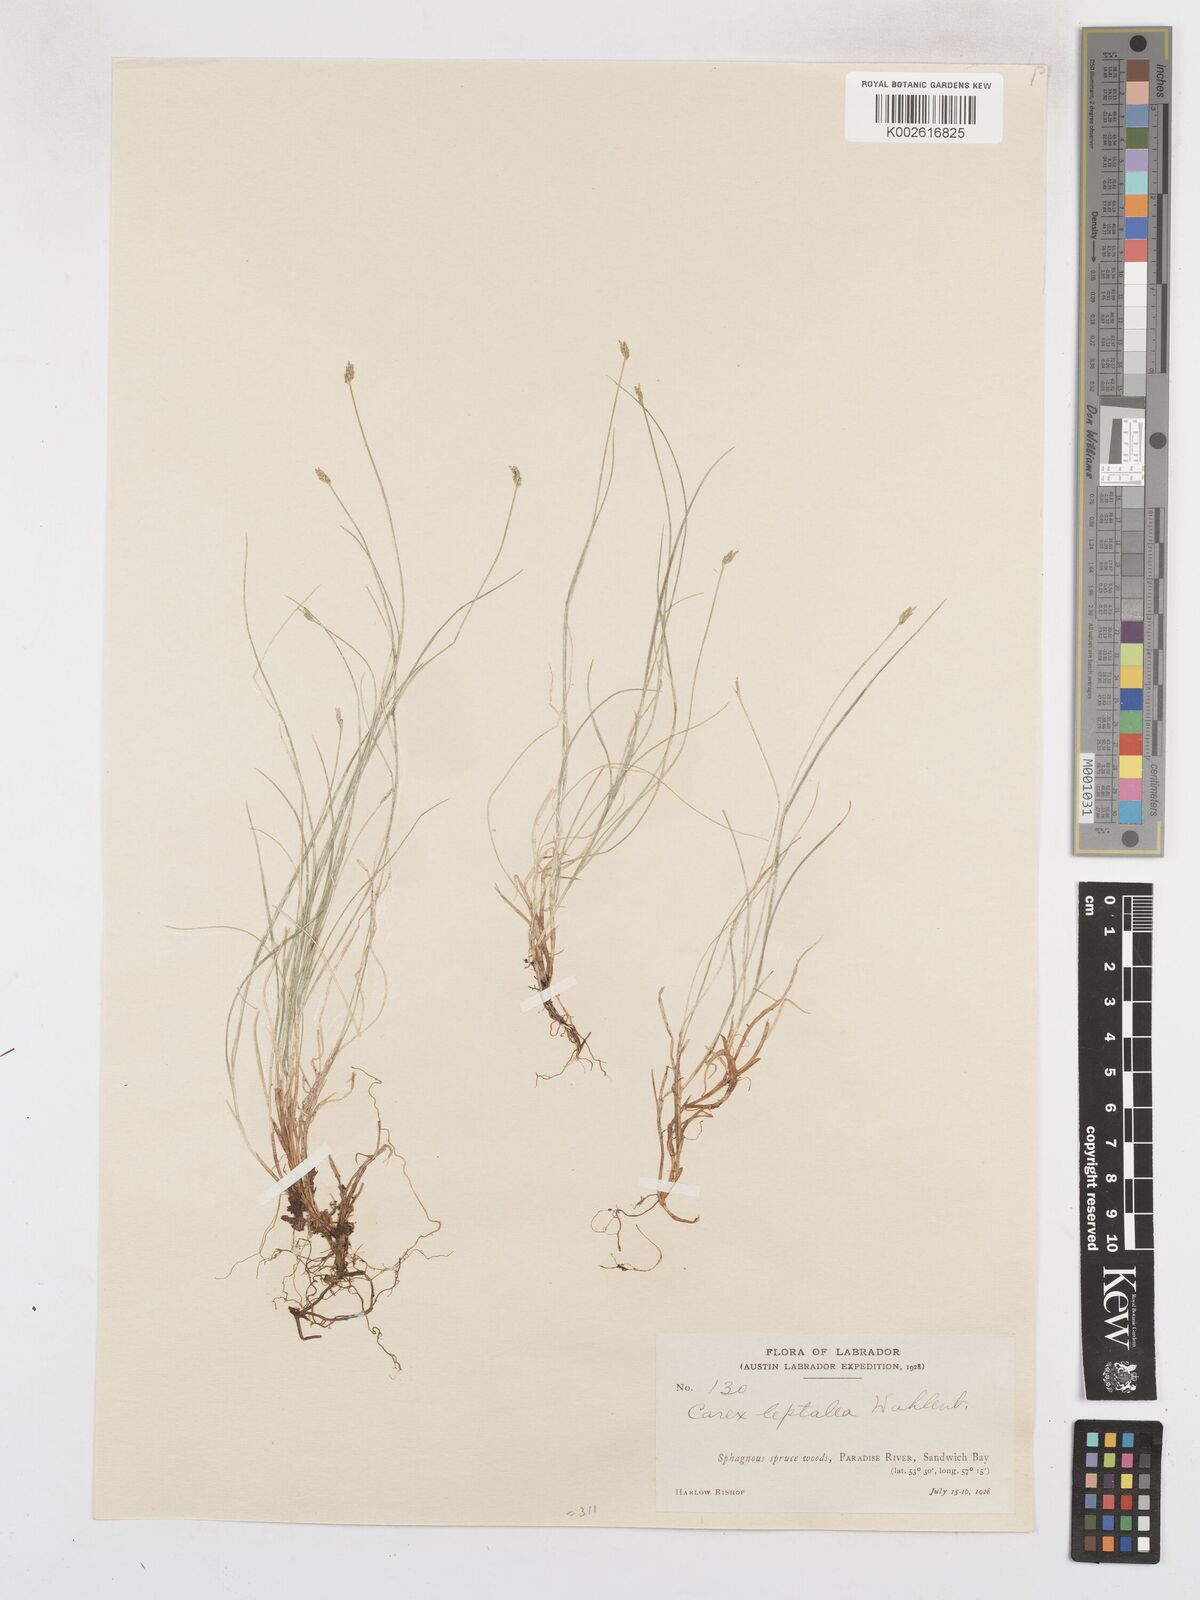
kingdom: Plantae
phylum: Tracheophyta
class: Liliopsida
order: Poales
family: Cyperaceae
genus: Carex
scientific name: Carex leptalea
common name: Bristly-stalked sedge
